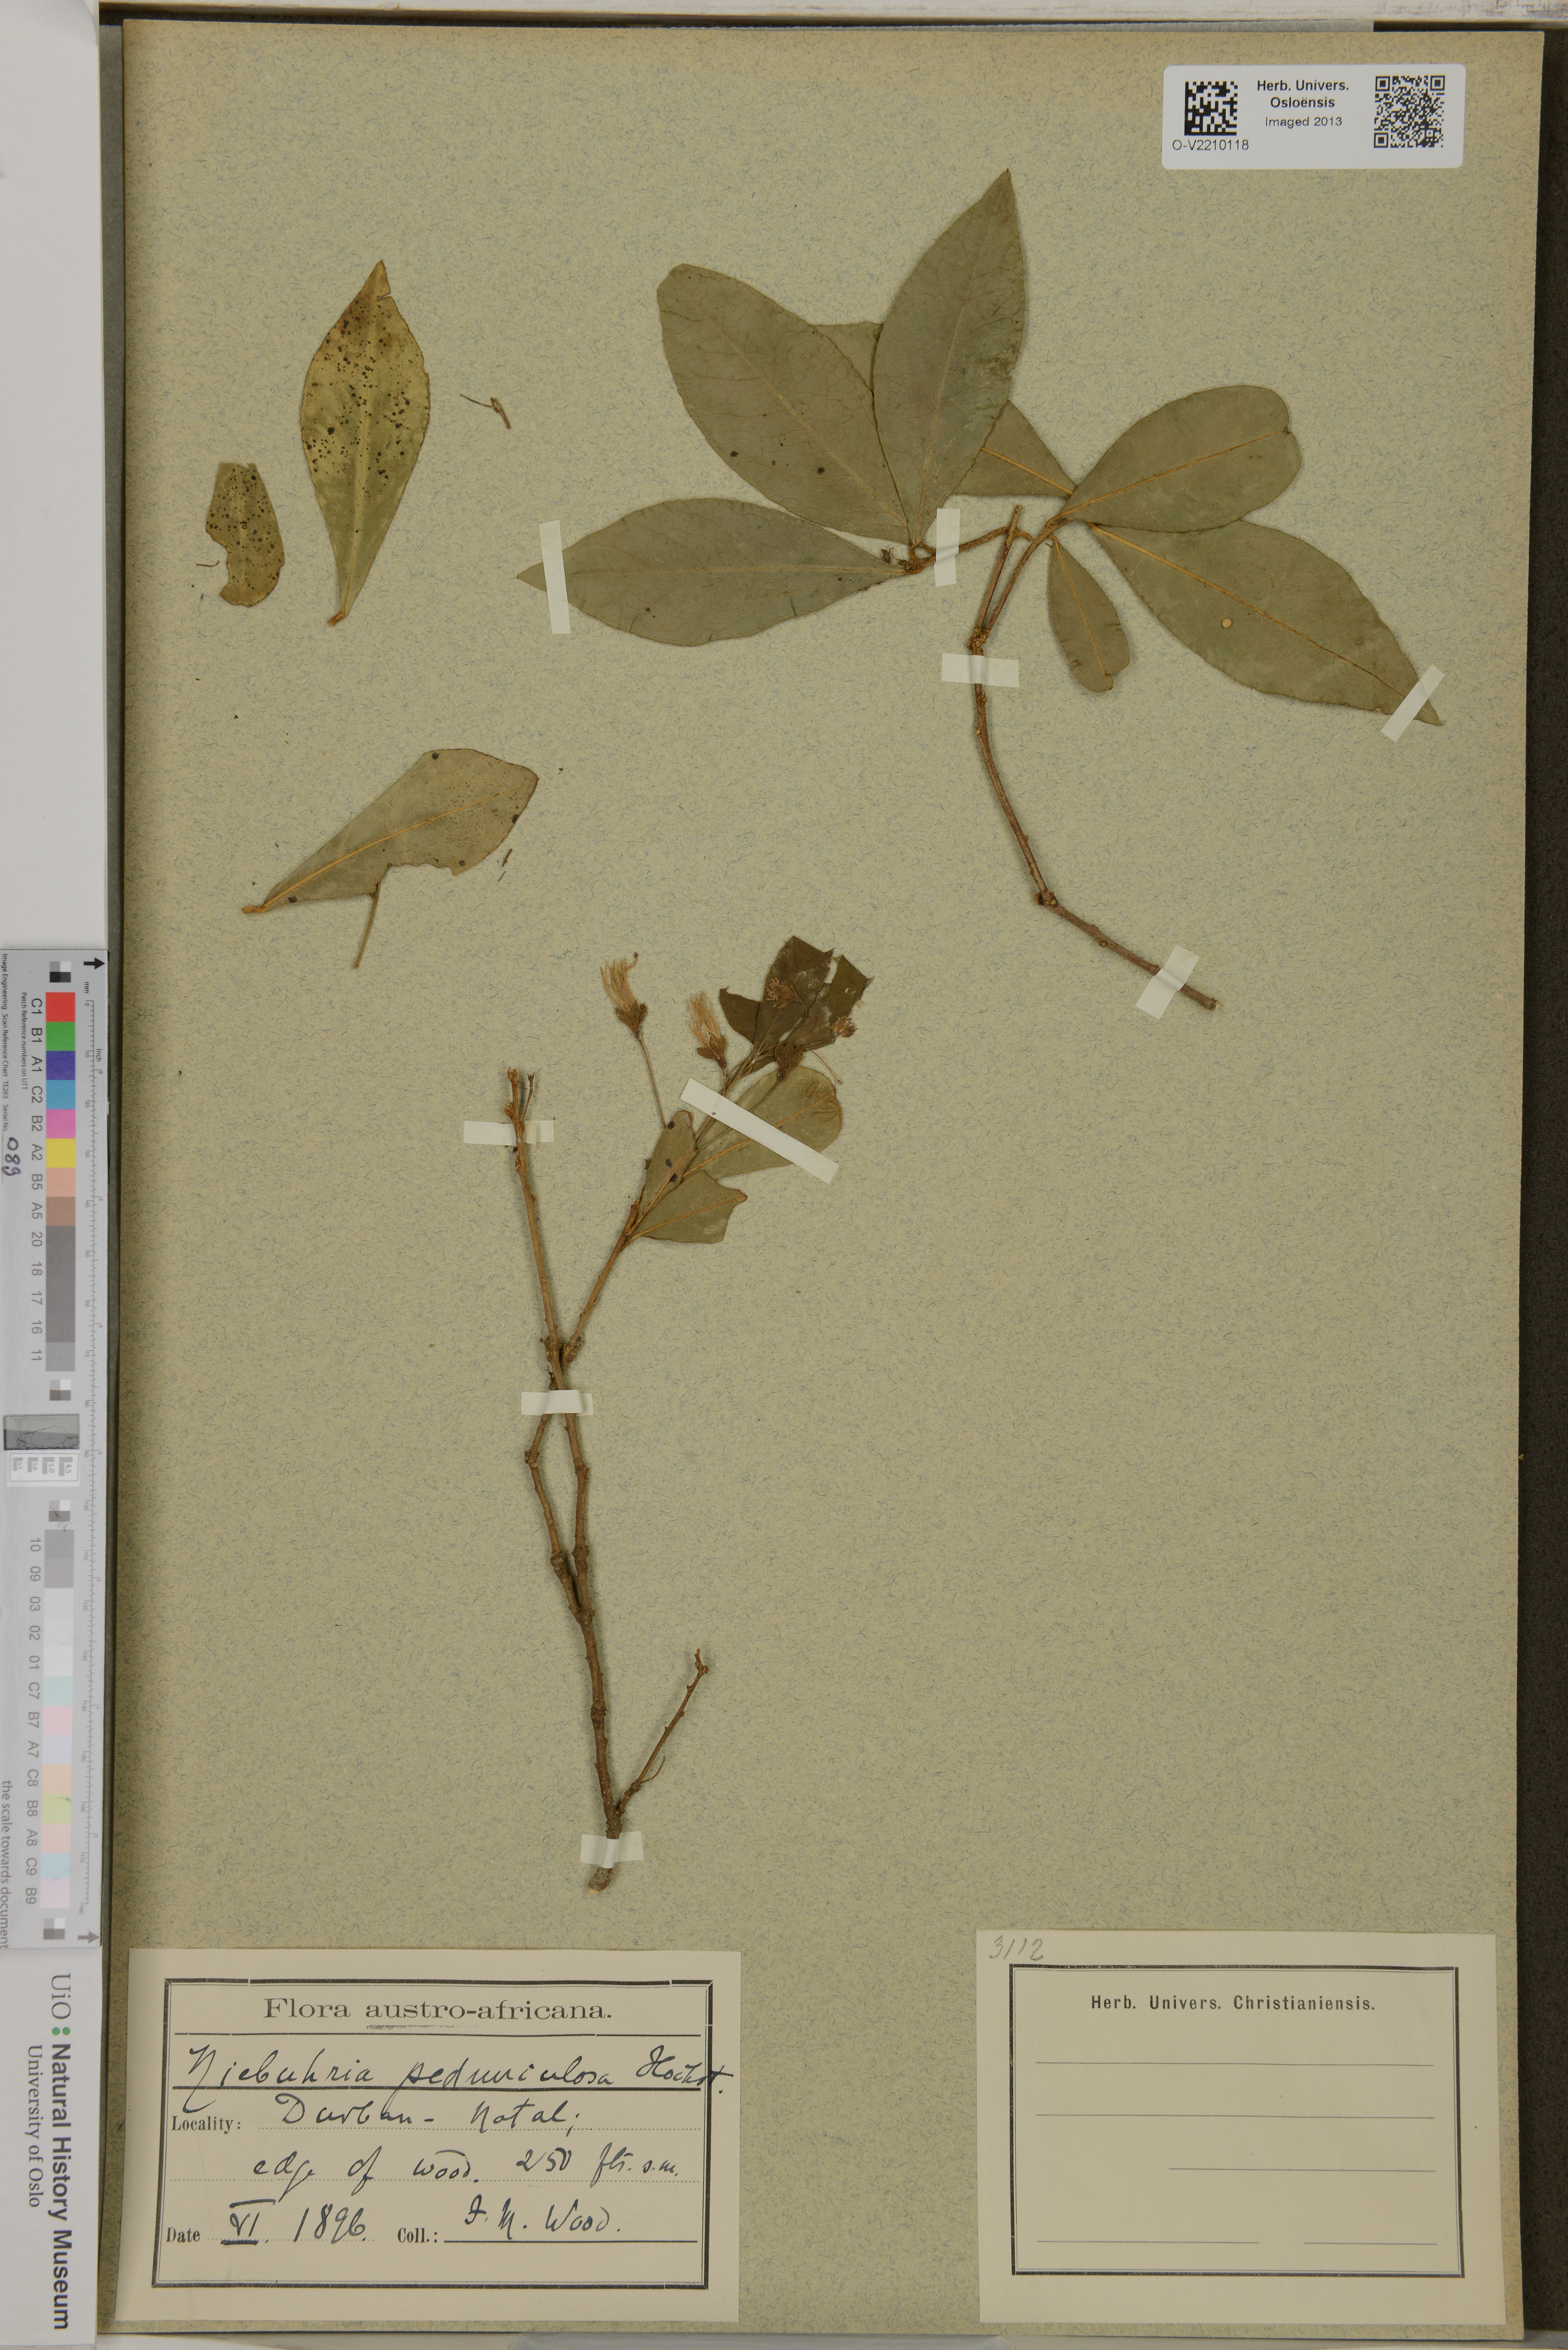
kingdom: Plantae
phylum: Tracheophyta
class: Magnoliopsida
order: Brassicales
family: Capparaceae
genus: Maerua
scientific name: Maerua racemulosa
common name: Forest bush-cherry
